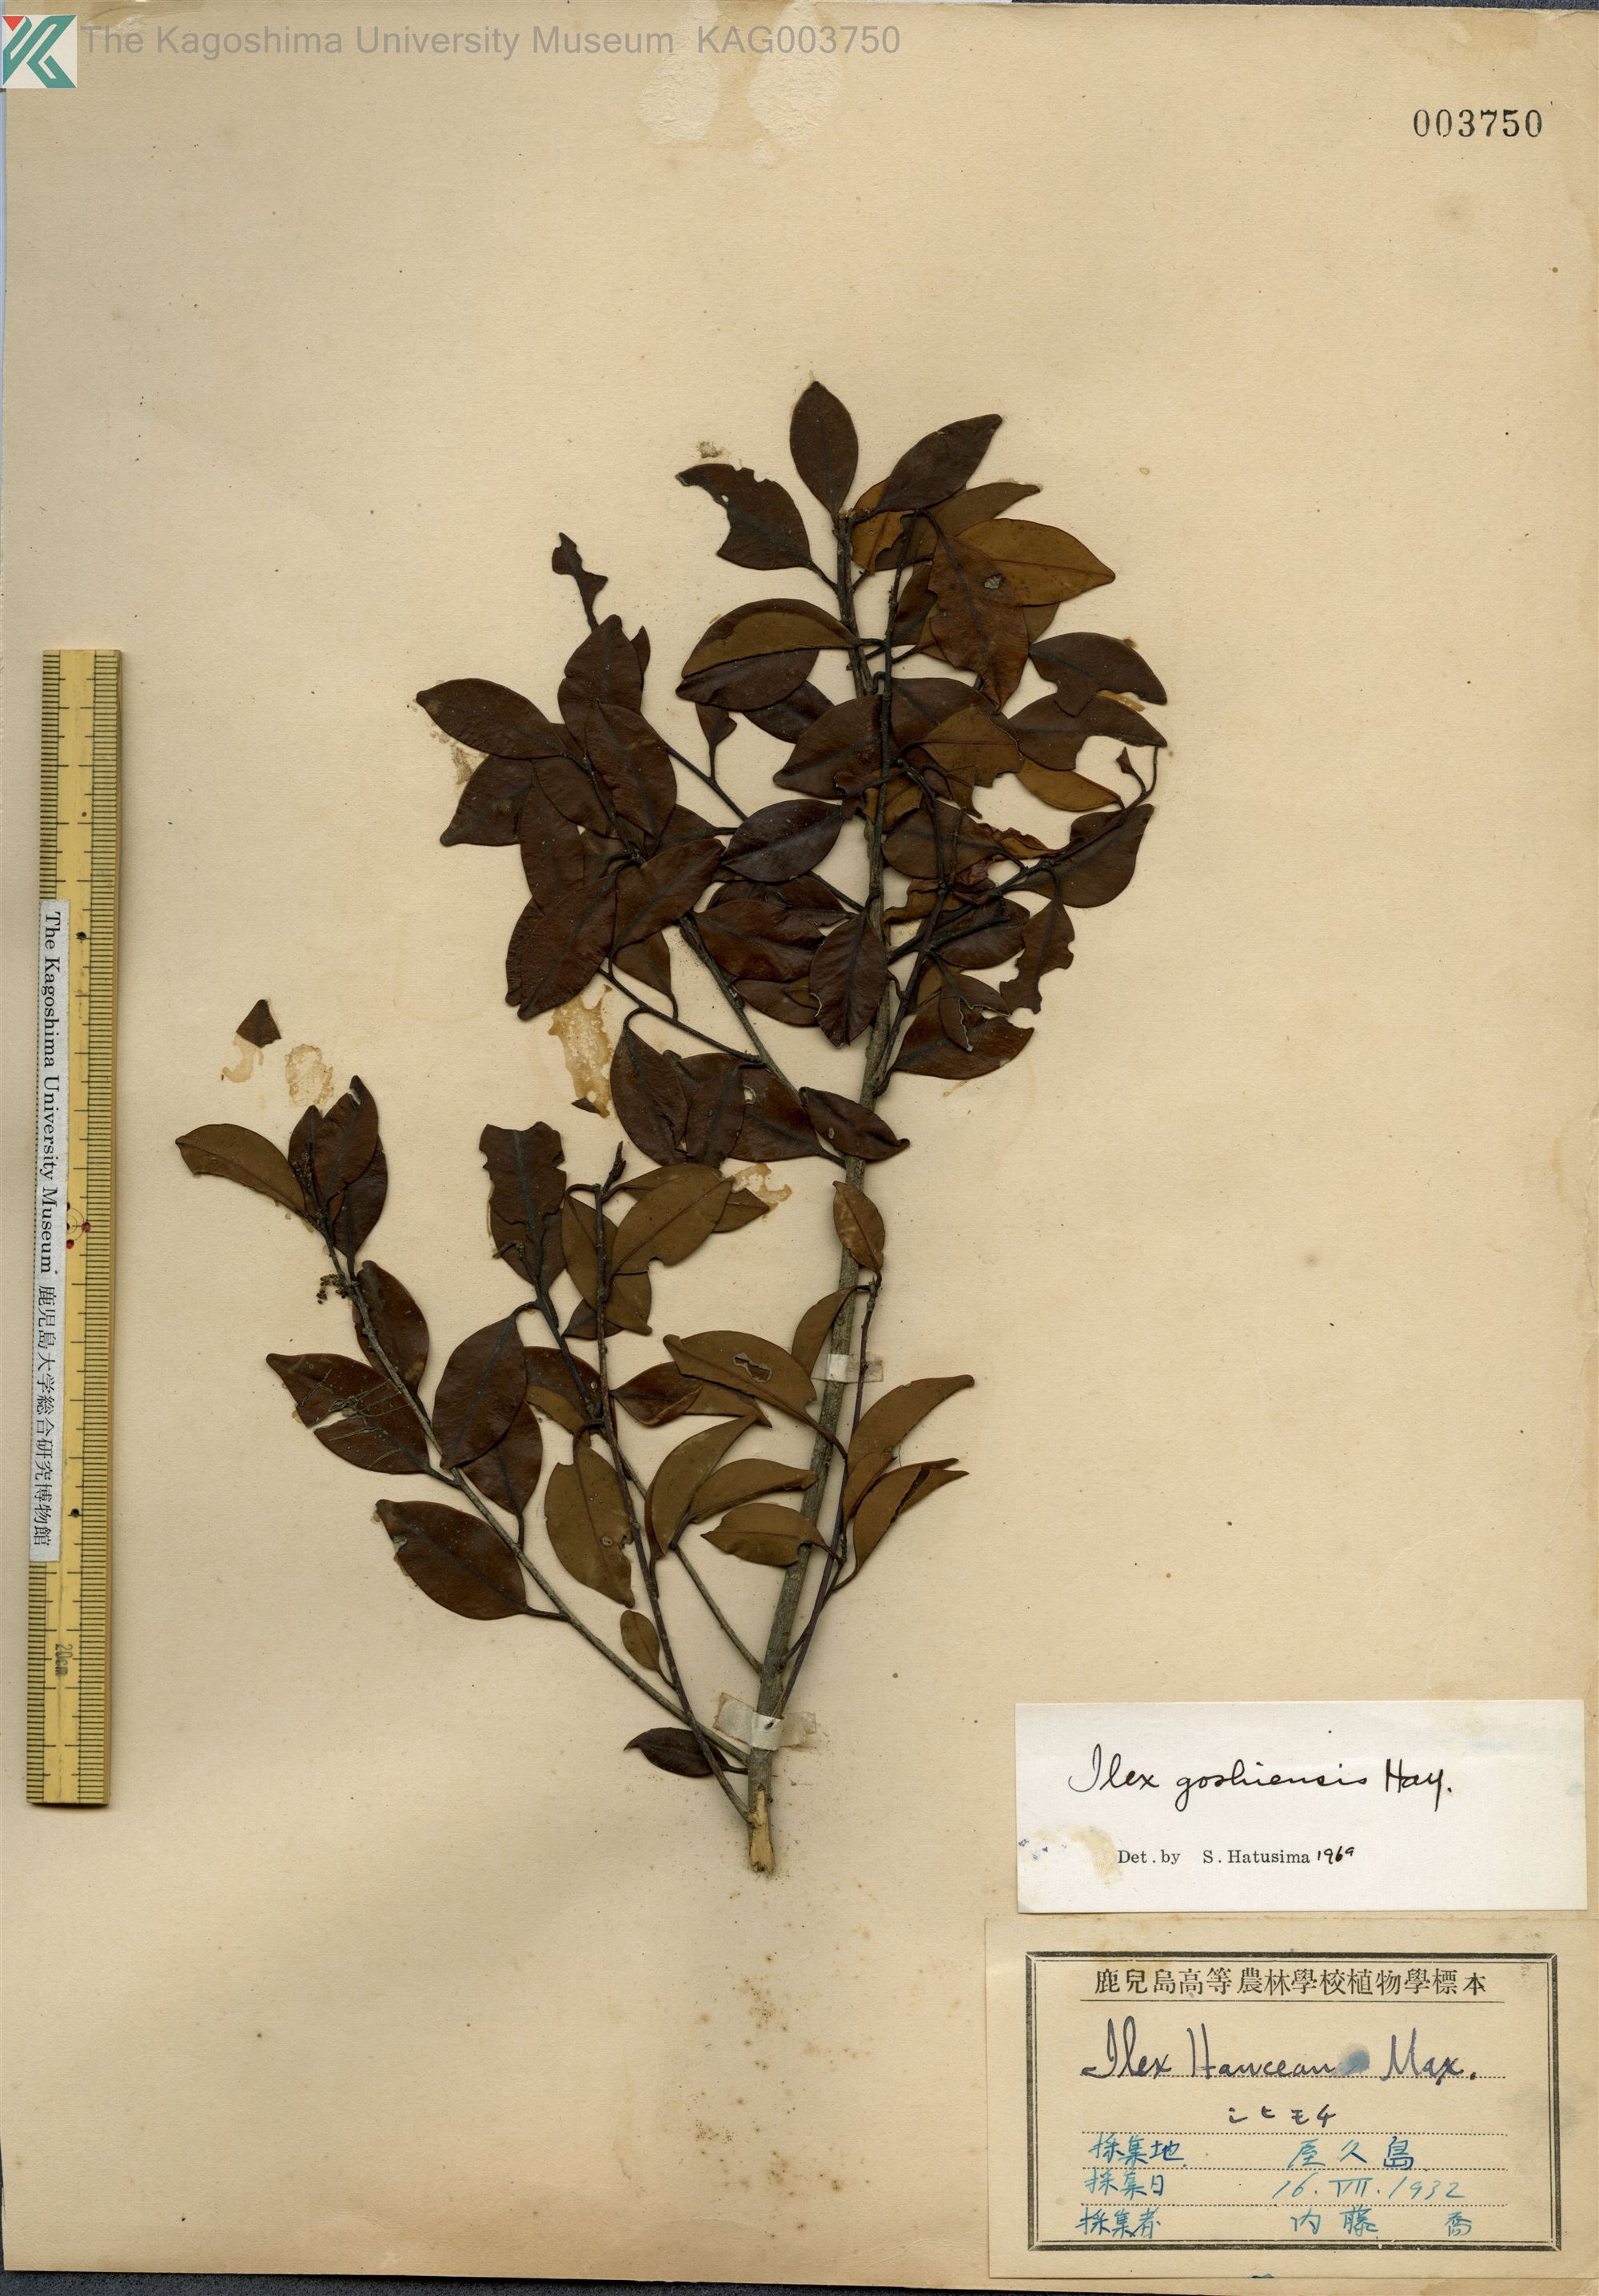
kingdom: Plantae
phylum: Tracheophyta
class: Magnoliopsida
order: Aquifoliales
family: Aquifoliaceae
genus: Ilex
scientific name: Ilex goshiensis
